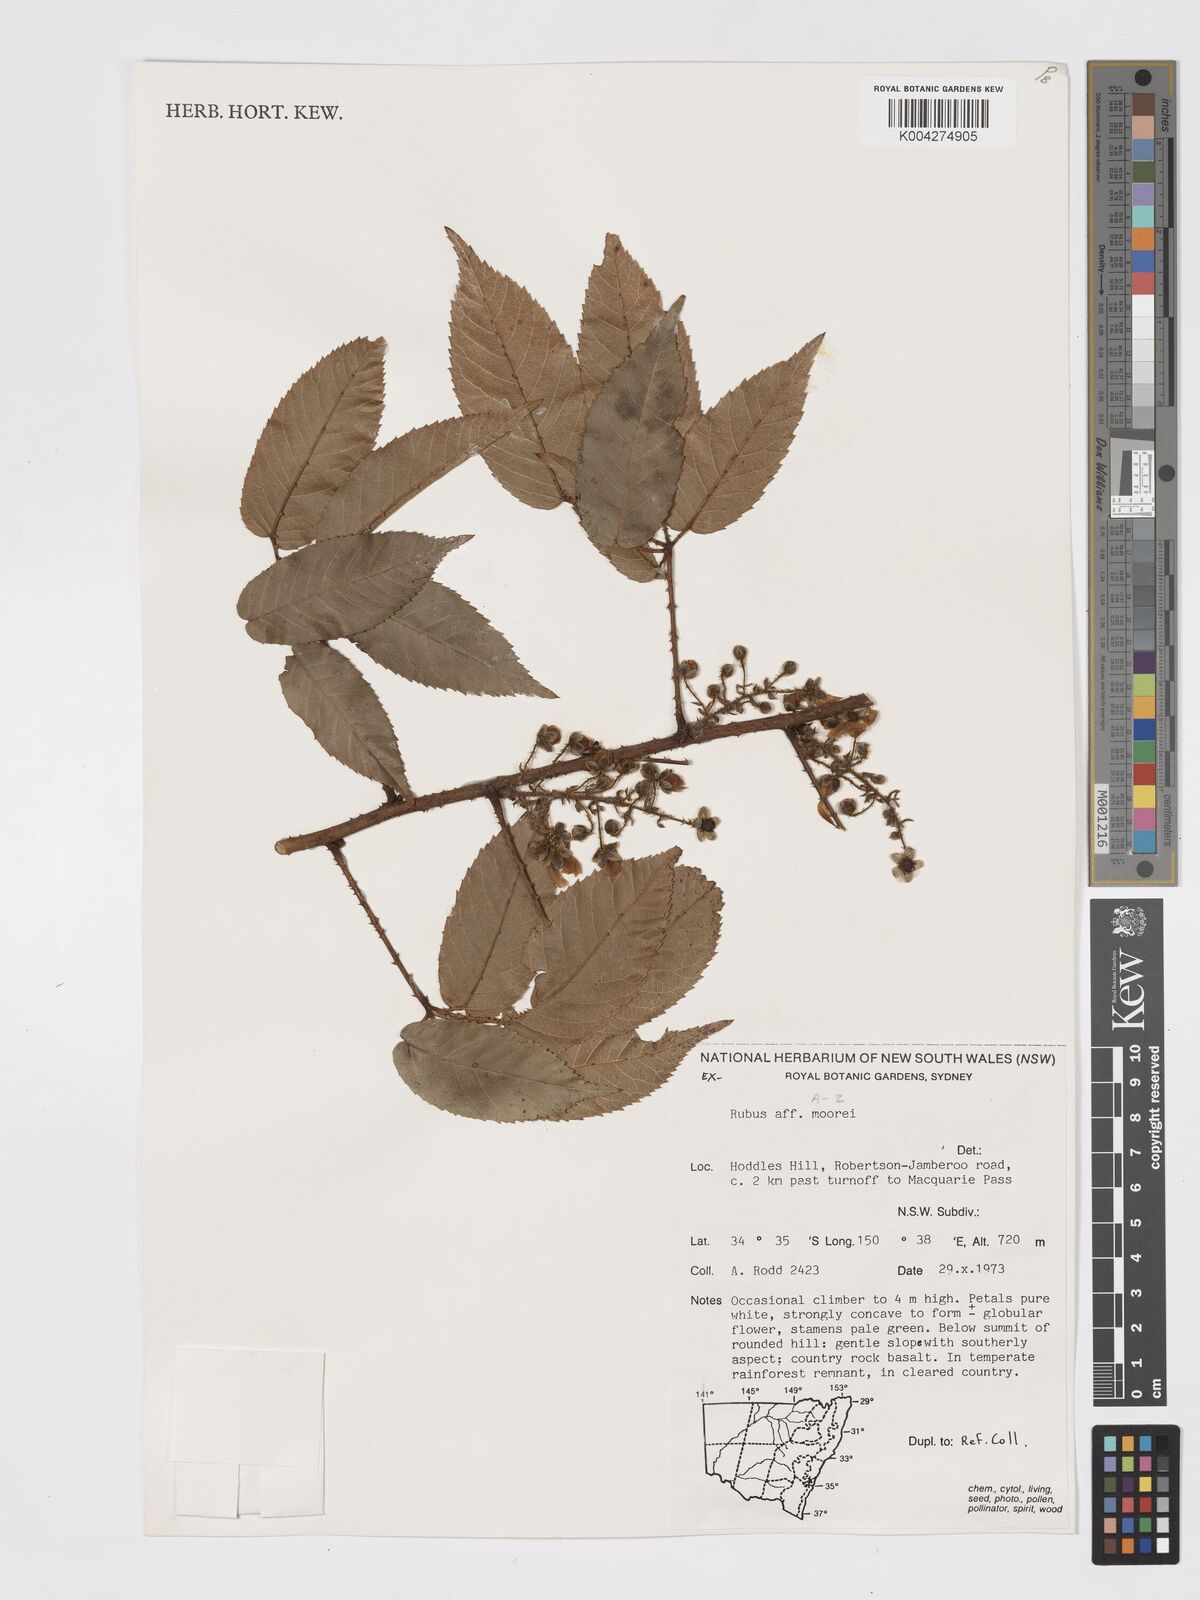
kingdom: Plantae
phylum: Tracheophyta
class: Magnoliopsida
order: Rosales
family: Rosaceae
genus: Rubus
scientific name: Rubus moorei
